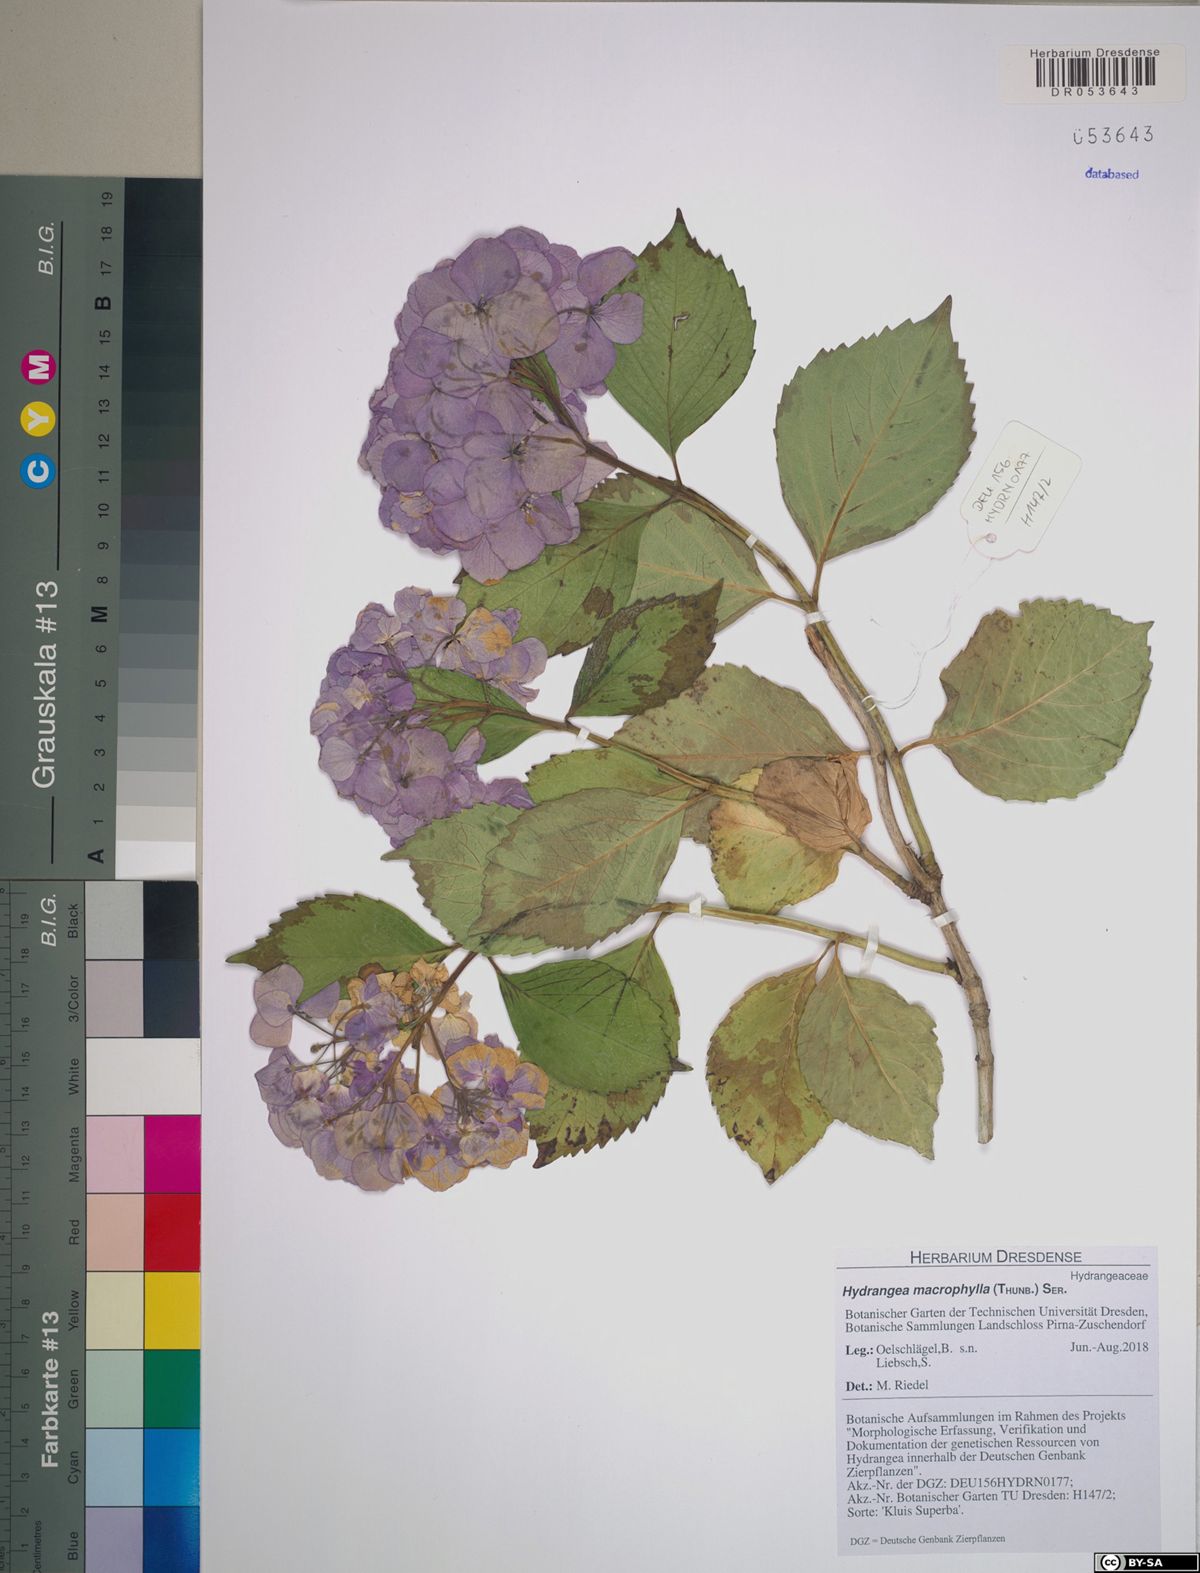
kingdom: Plantae
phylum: Tracheophyta
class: Magnoliopsida
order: Cornales
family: Hydrangeaceae
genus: Hydrangea
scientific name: Hydrangea macrophylla
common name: Hydrangea
